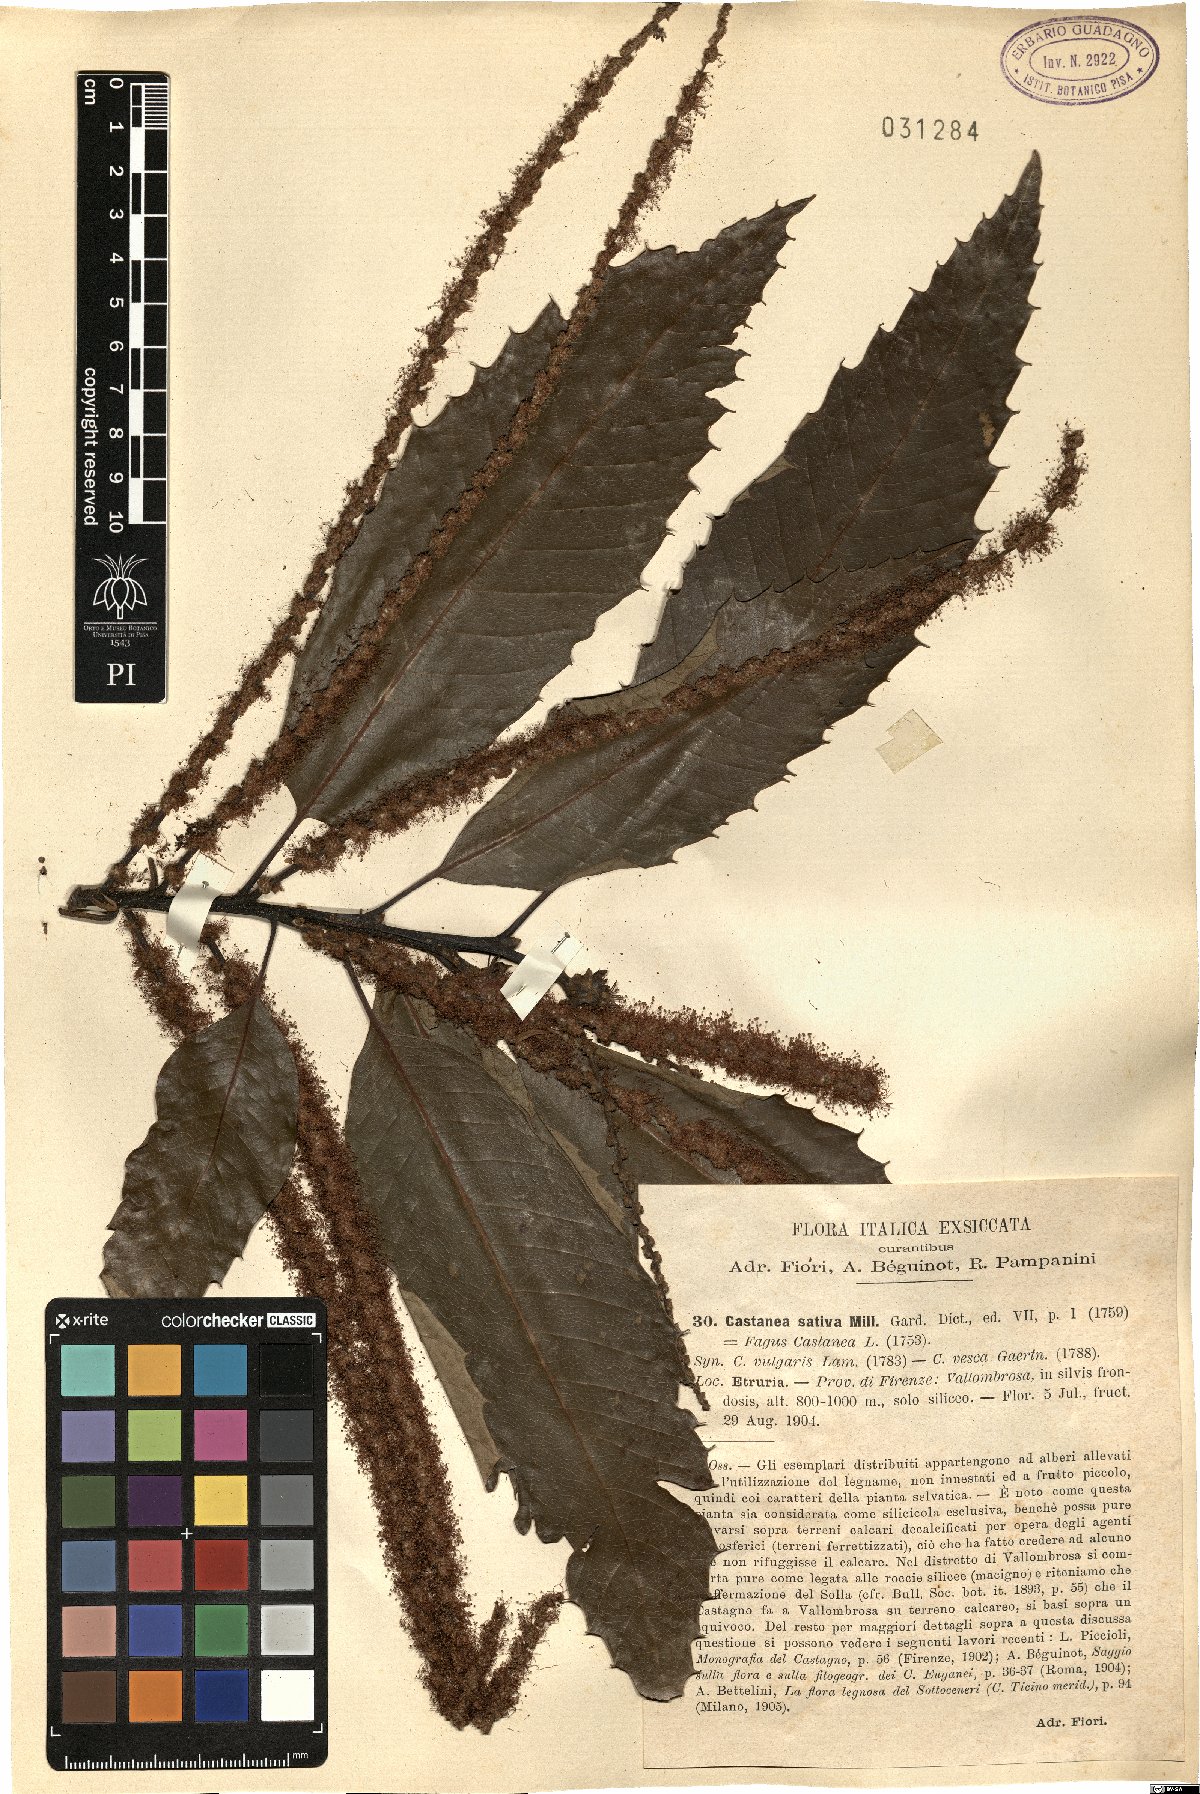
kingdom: Plantae
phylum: Tracheophyta
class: Magnoliopsida
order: Fagales
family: Fagaceae
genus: Castanea
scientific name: Castanea sativa
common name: Sweet chestnut
